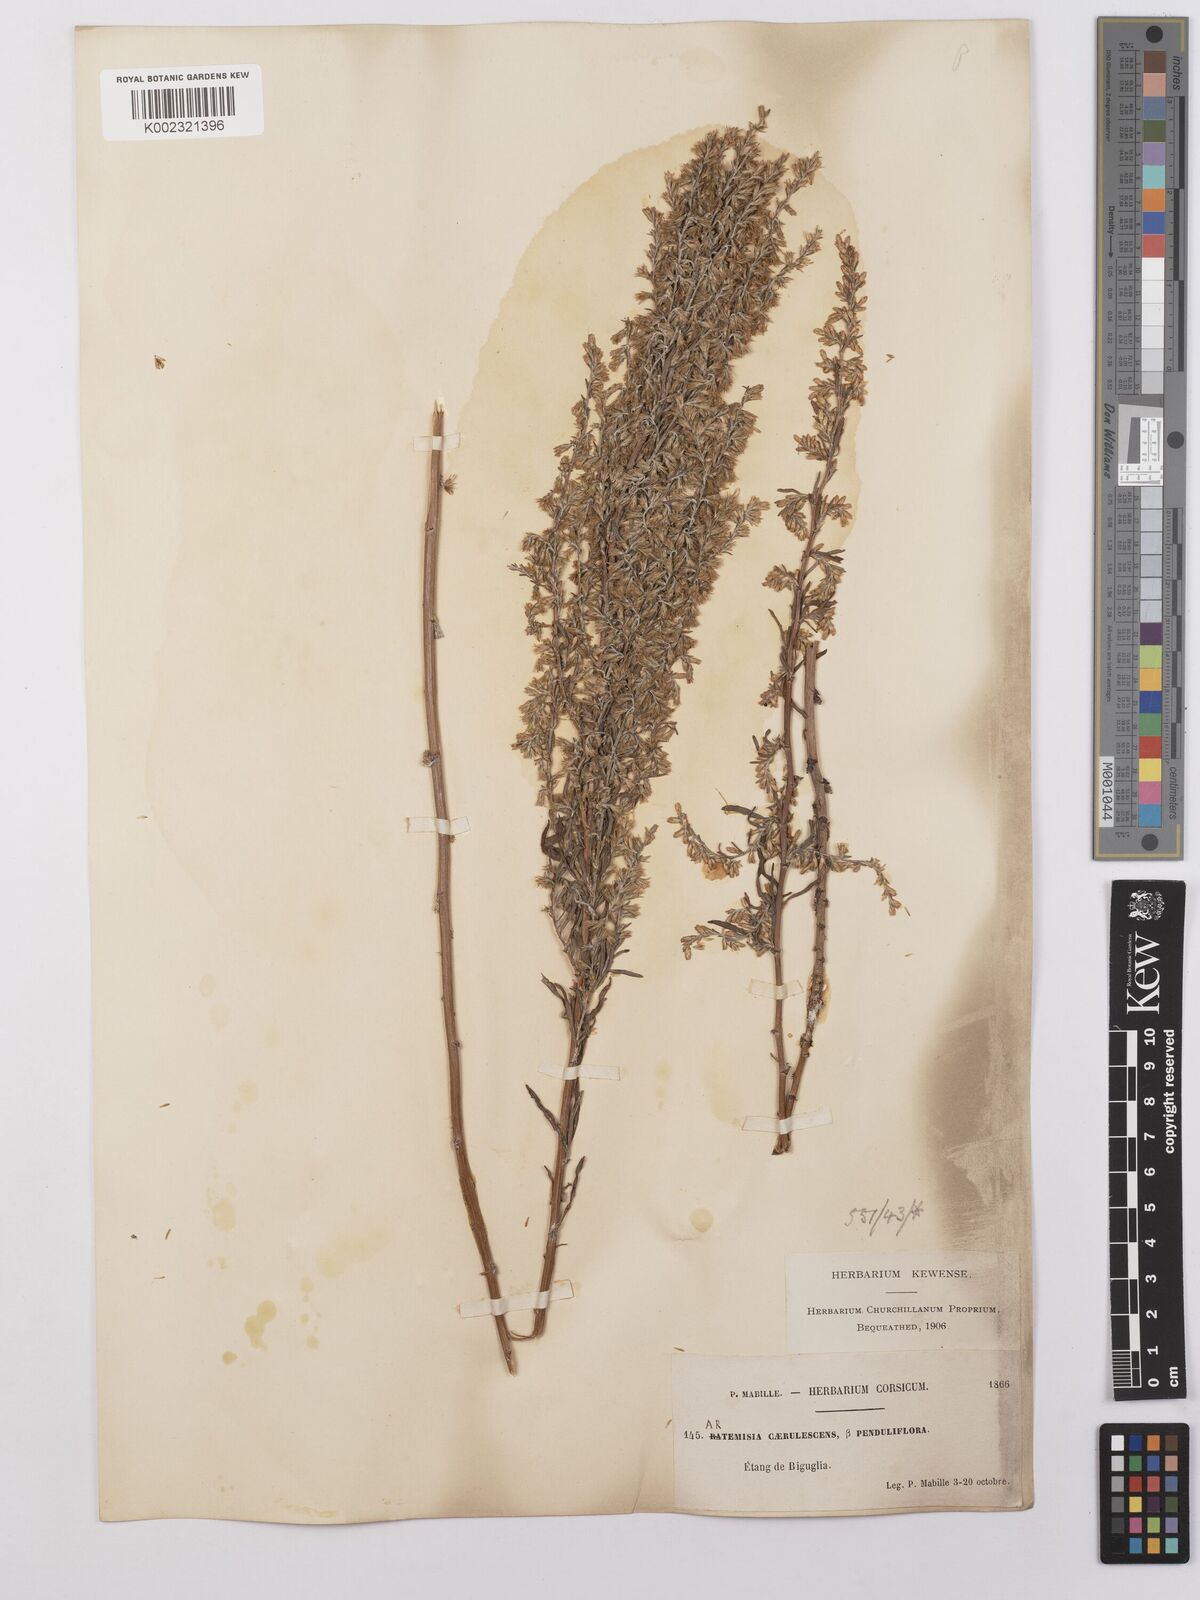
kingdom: Plantae
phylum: Tracheophyta
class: Magnoliopsida
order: Asterales
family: Asteraceae
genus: Artemisia
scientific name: Artemisia caerulescens
